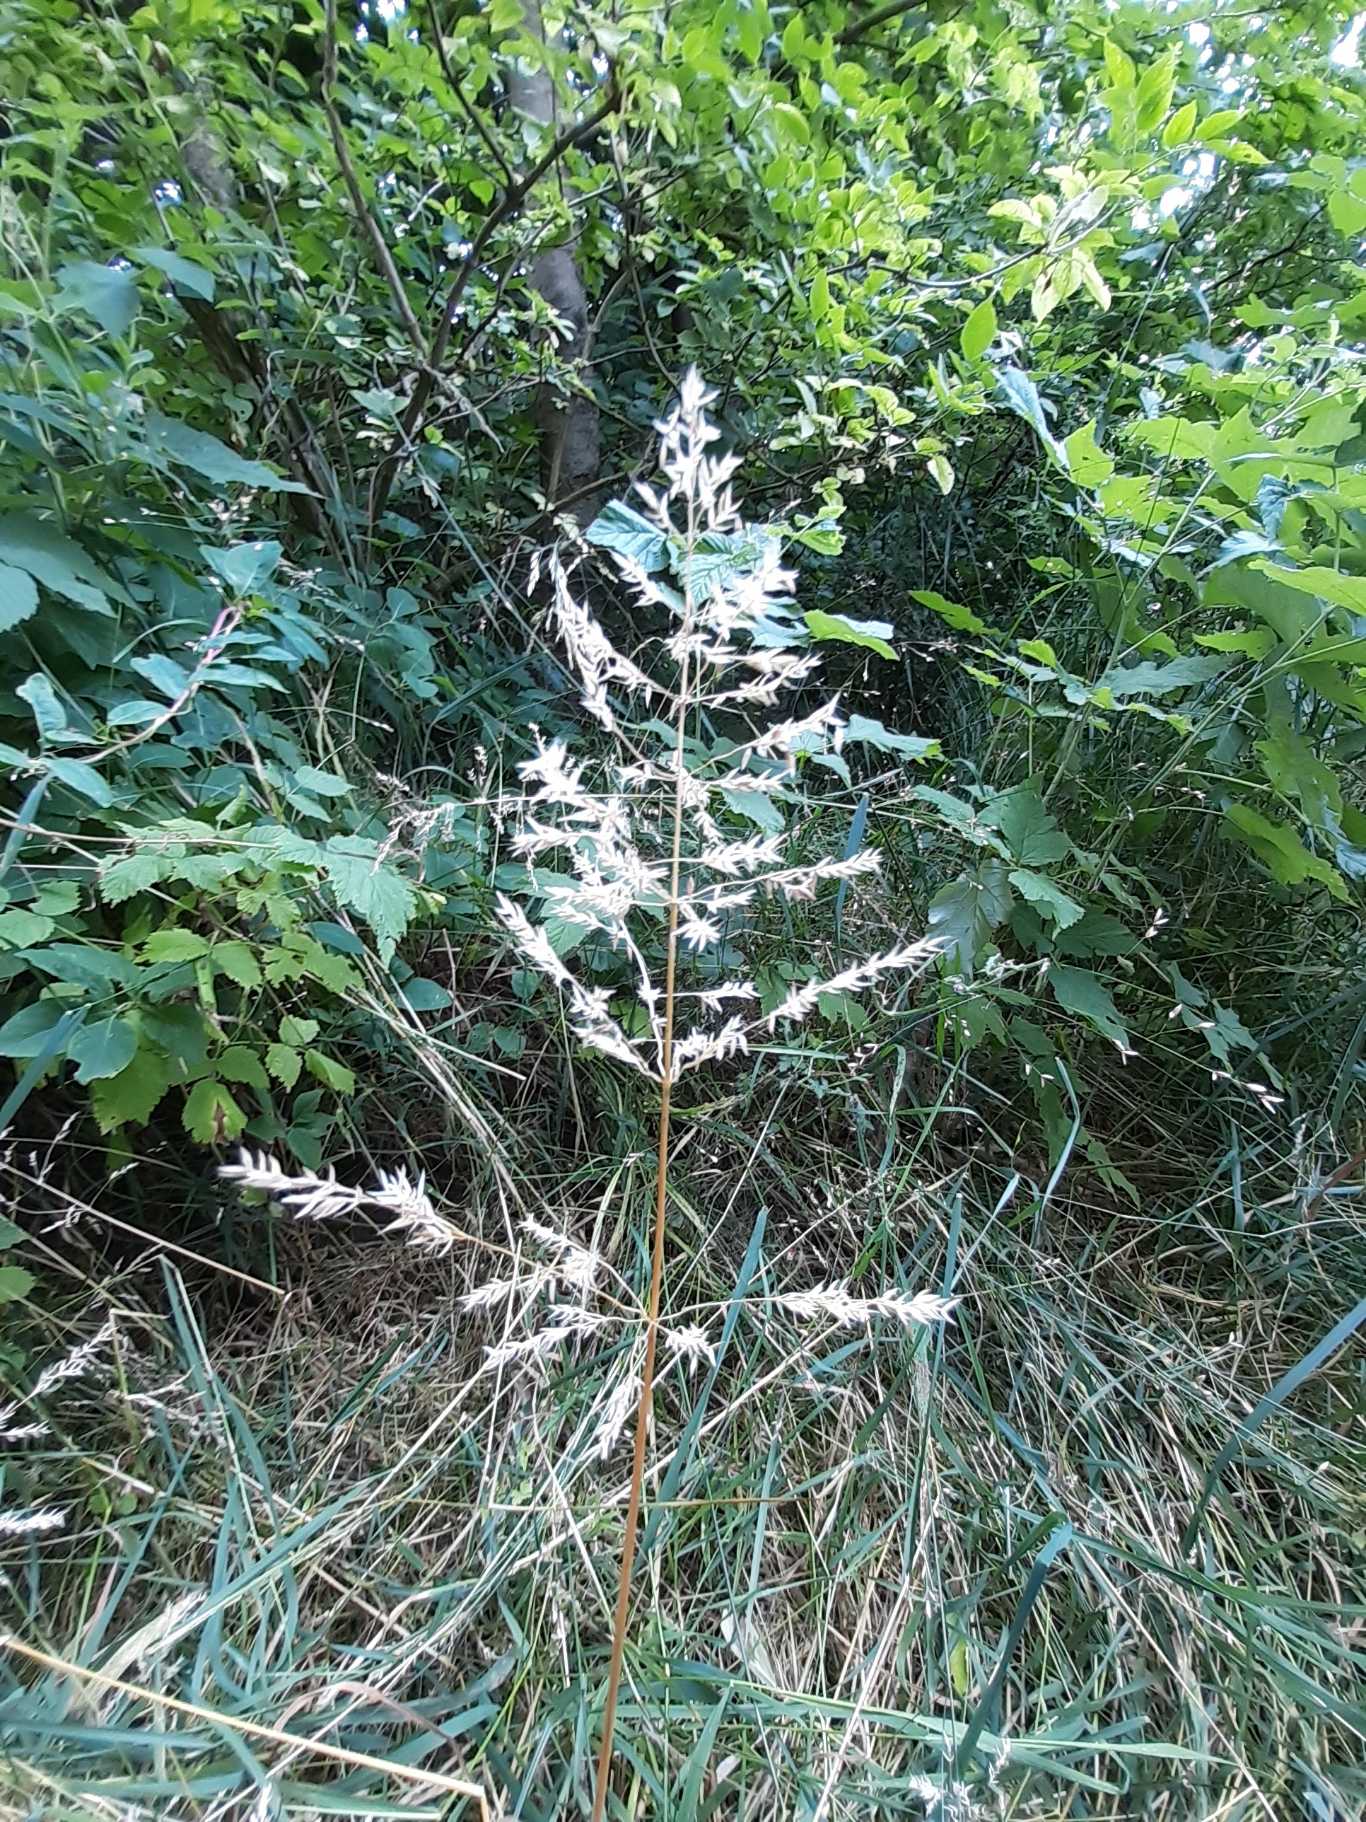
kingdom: Plantae
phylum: Tracheophyta
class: Liliopsida
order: Poales
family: Poaceae
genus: Poa
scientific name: Poa trivialis
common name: Almindelig rapgræs
